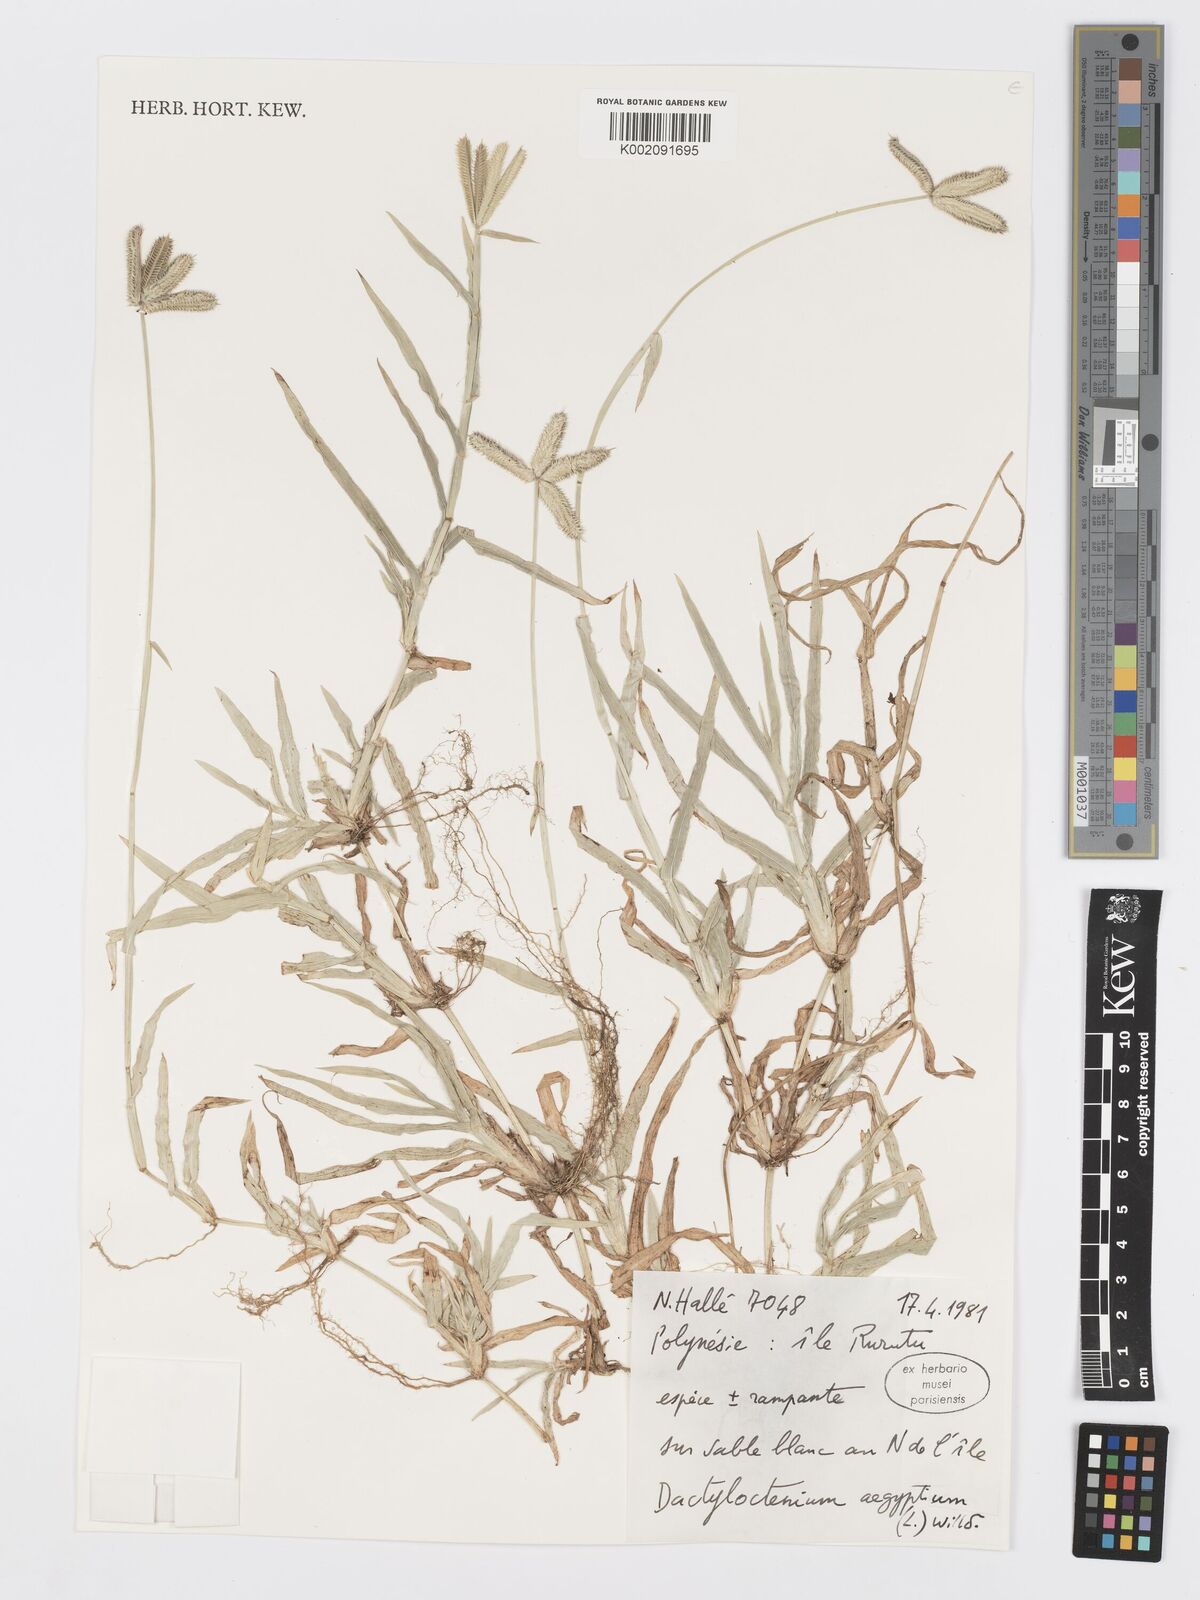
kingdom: Plantae
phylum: Tracheophyta
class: Liliopsida
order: Poales
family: Poaceae
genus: Dactyloctenium
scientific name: Dactyloctenium aegyptium
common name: Egyptian grass
